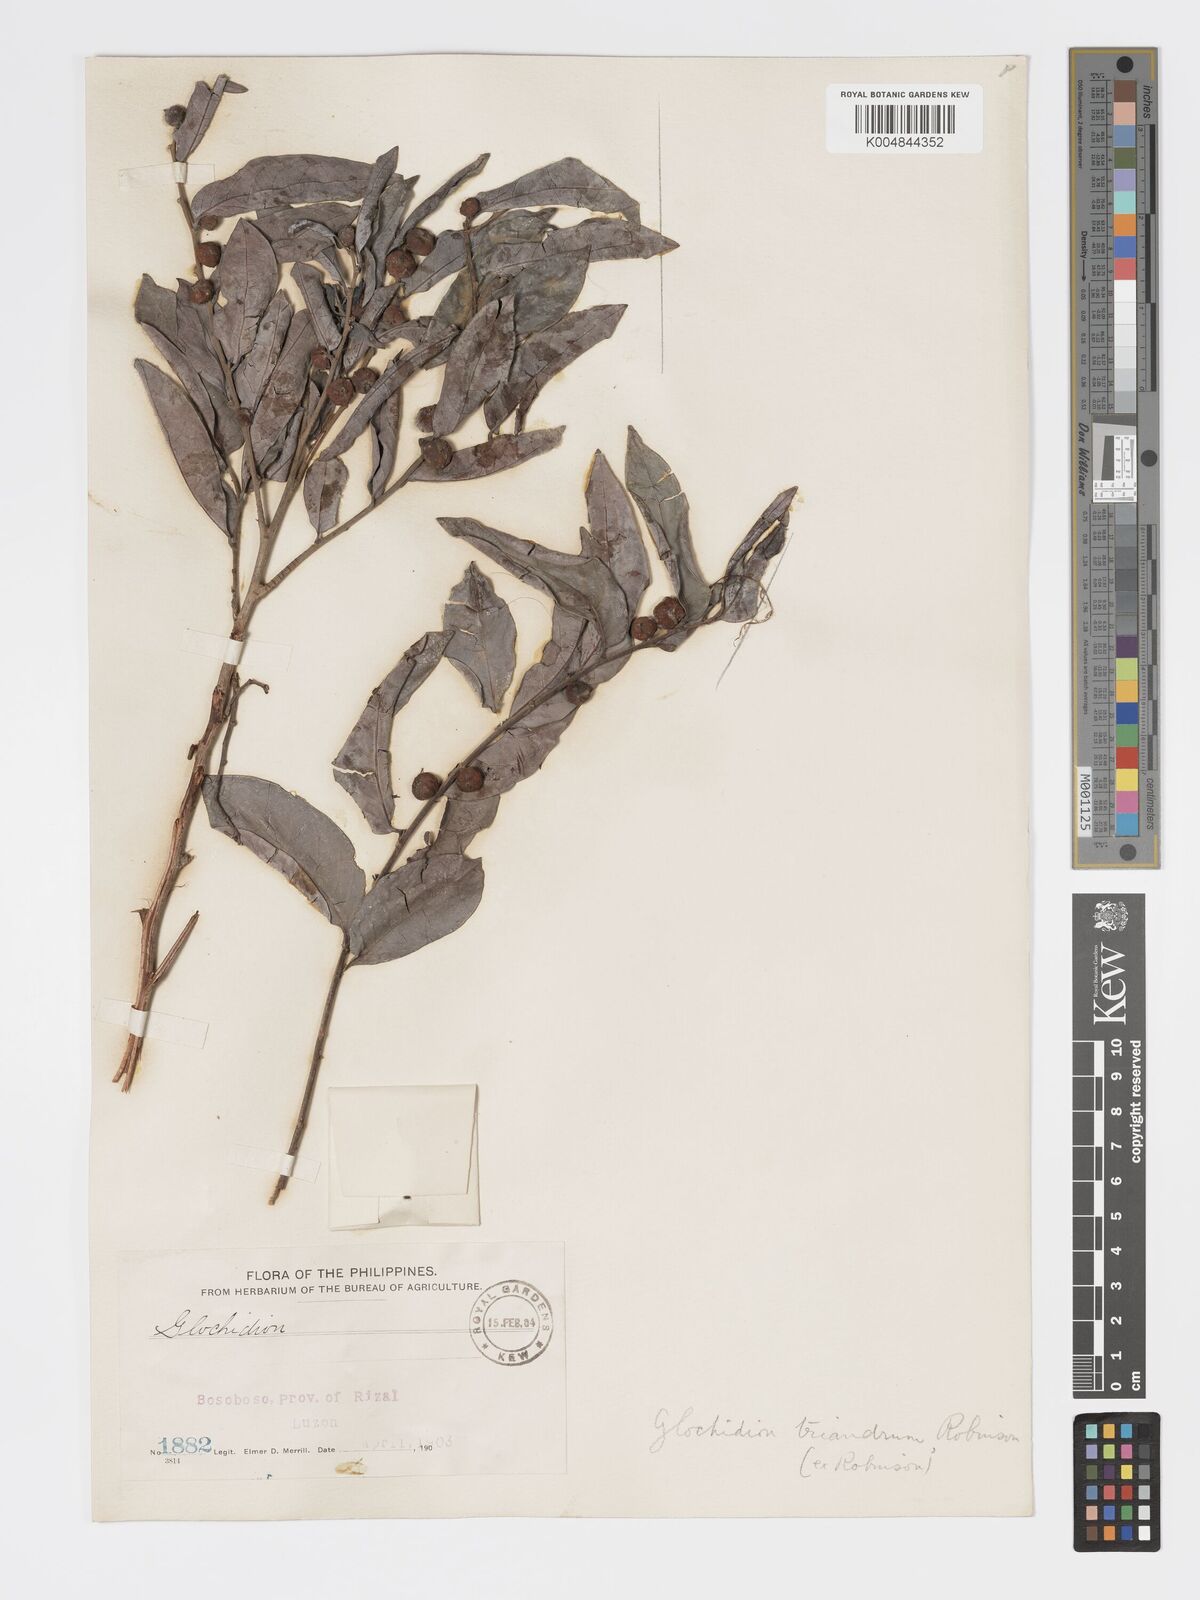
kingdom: Plantae
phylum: Tracheophyta
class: Magnoliopsida
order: Malpighiales
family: Phyllanthaceae
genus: Glochidion
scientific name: Glochidion triandrum
